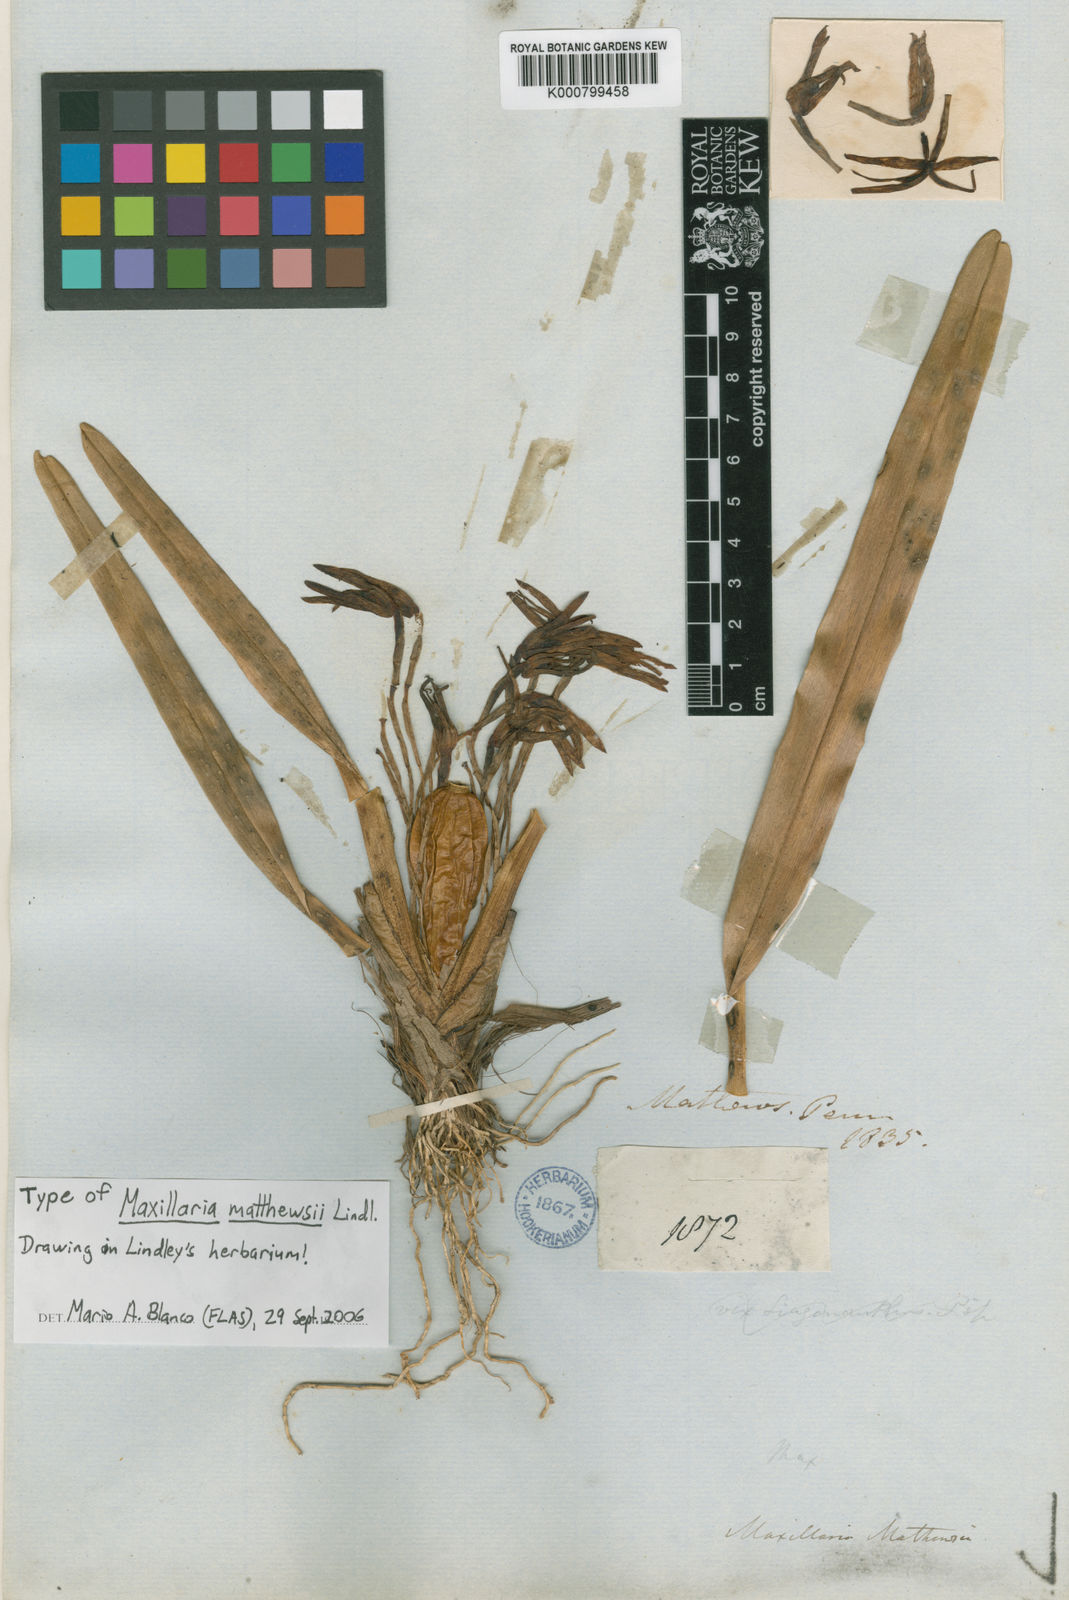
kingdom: Plantae
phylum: Tracheophyta
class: Liliopsida
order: Asparagales
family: Orchidaceae
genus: Maxillaria
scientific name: Maxillaria mathewsii
